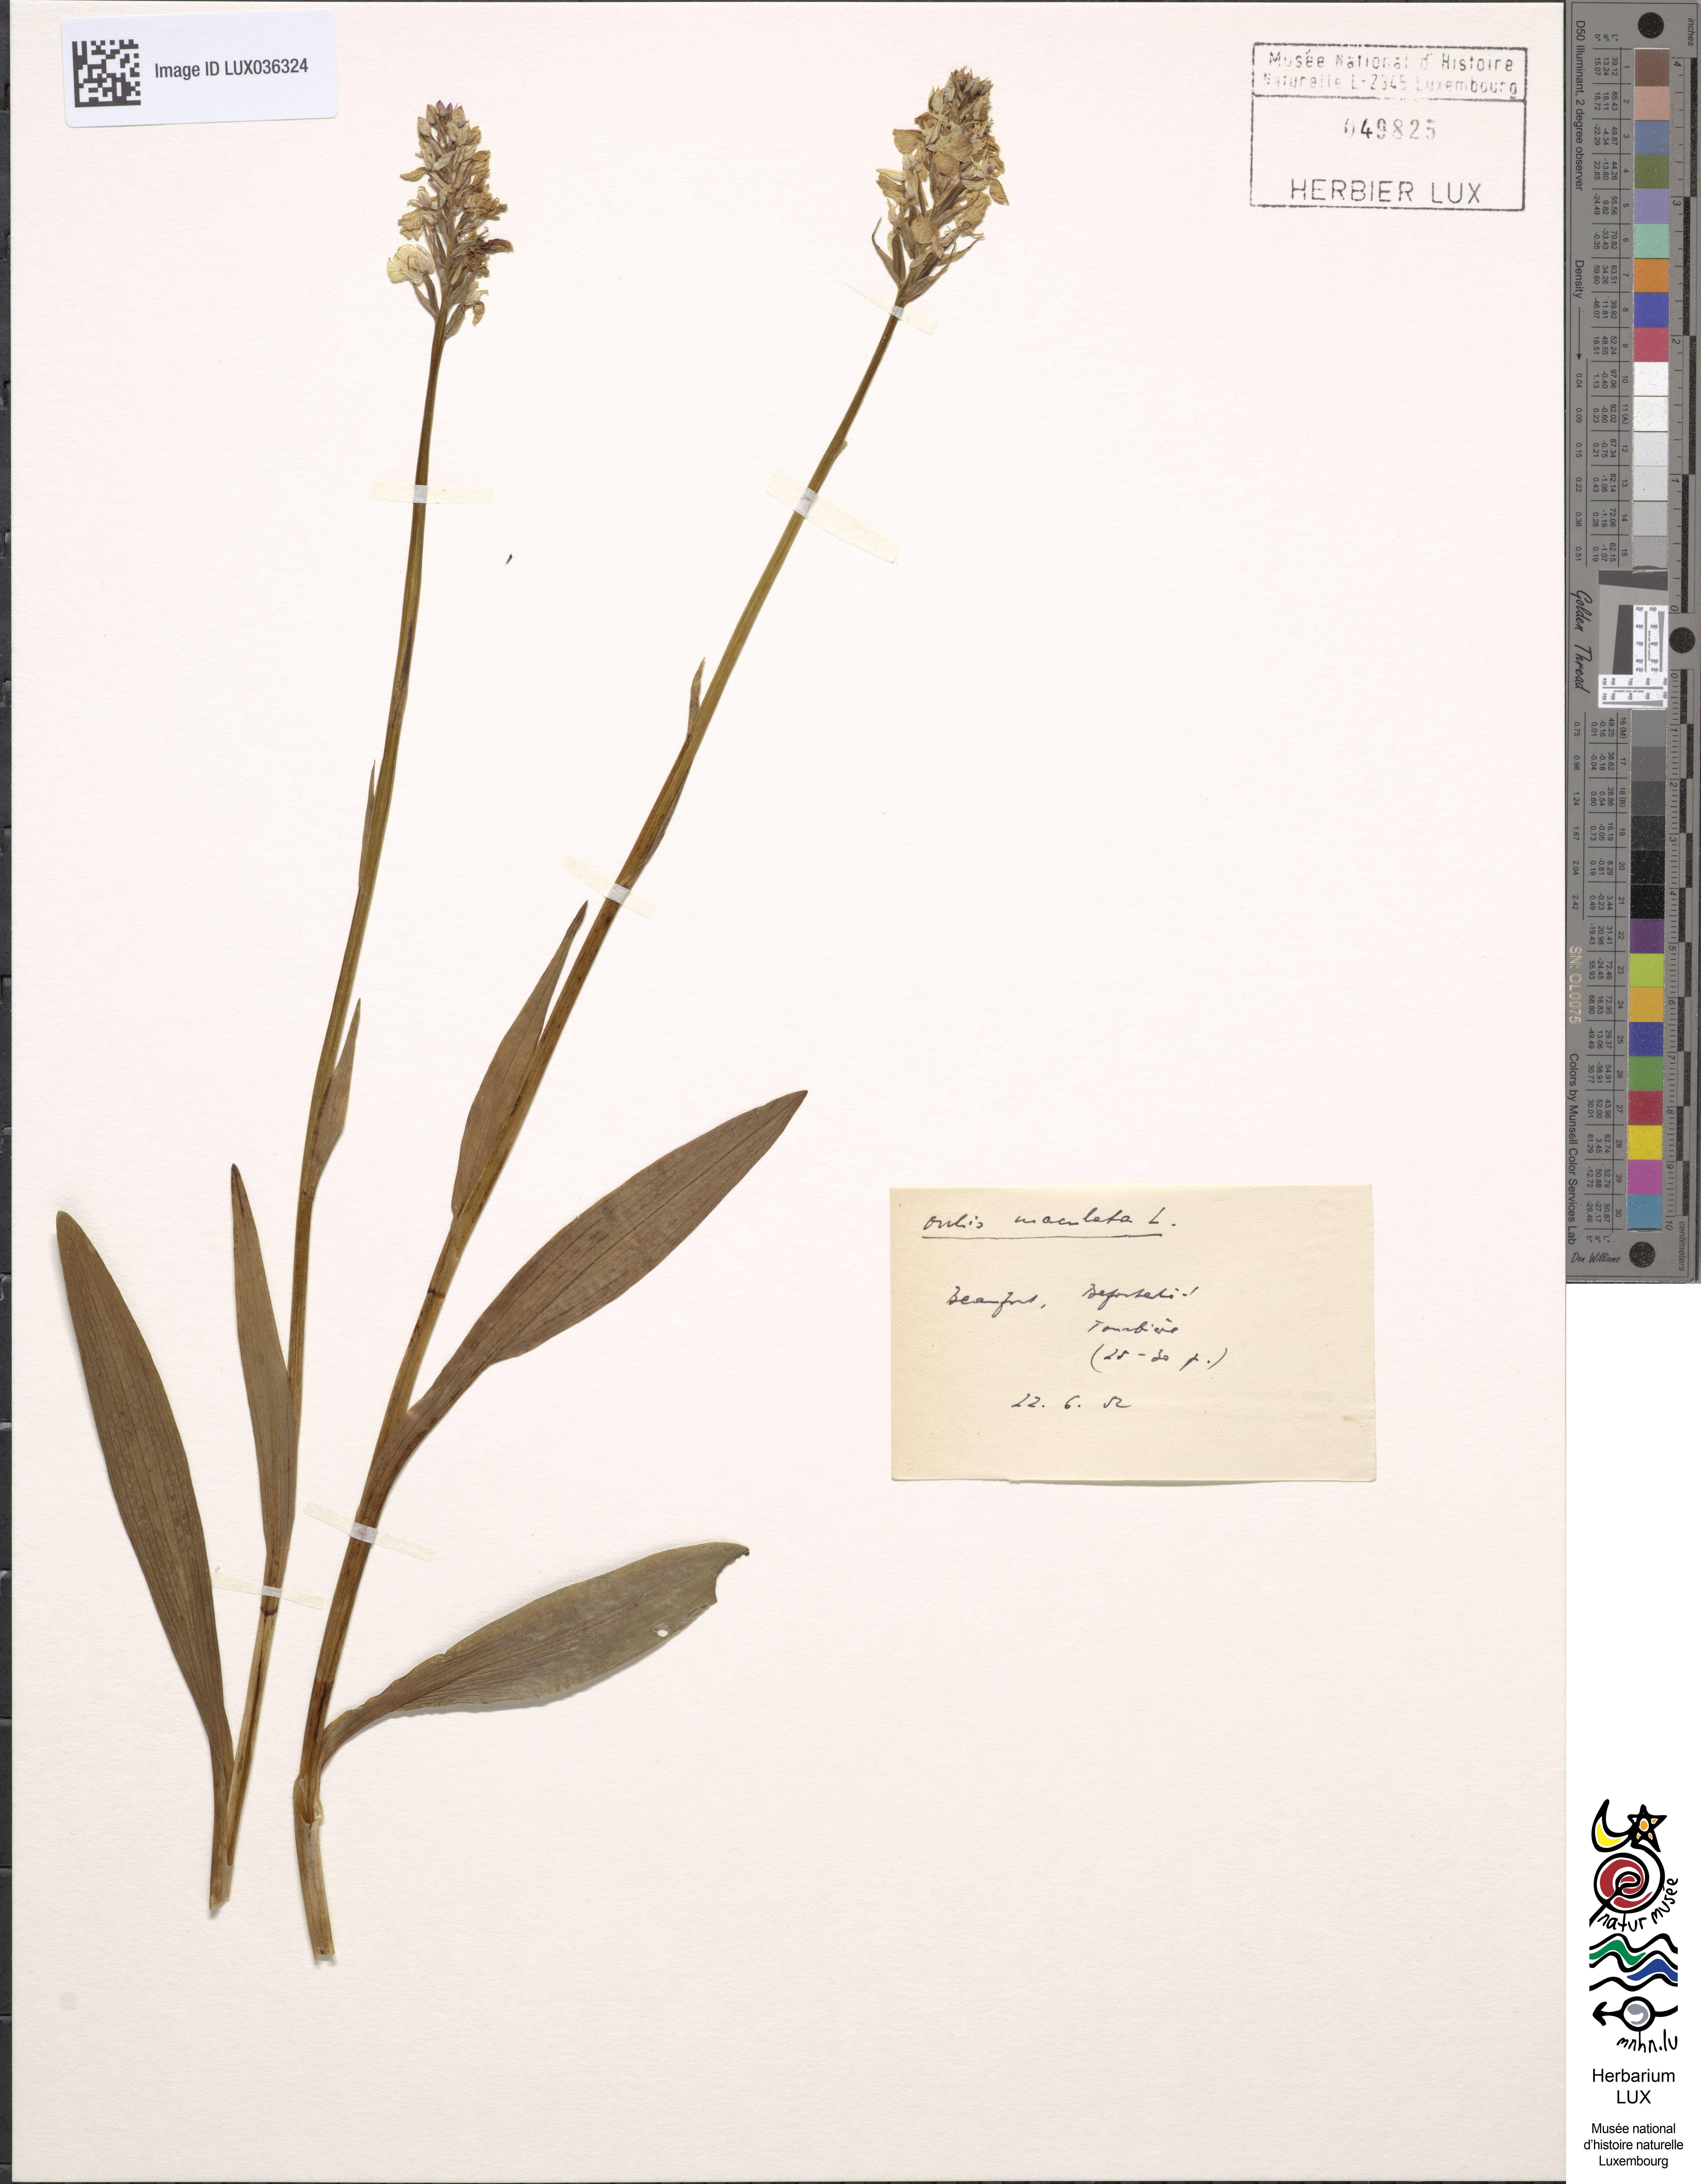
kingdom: Plantae
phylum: Tracheophyta
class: Liliopsida
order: Asparagales
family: Orchidaceae
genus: Dactylorhiza
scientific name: Dactylorhiza maculata
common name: Heath spotted-orchid
